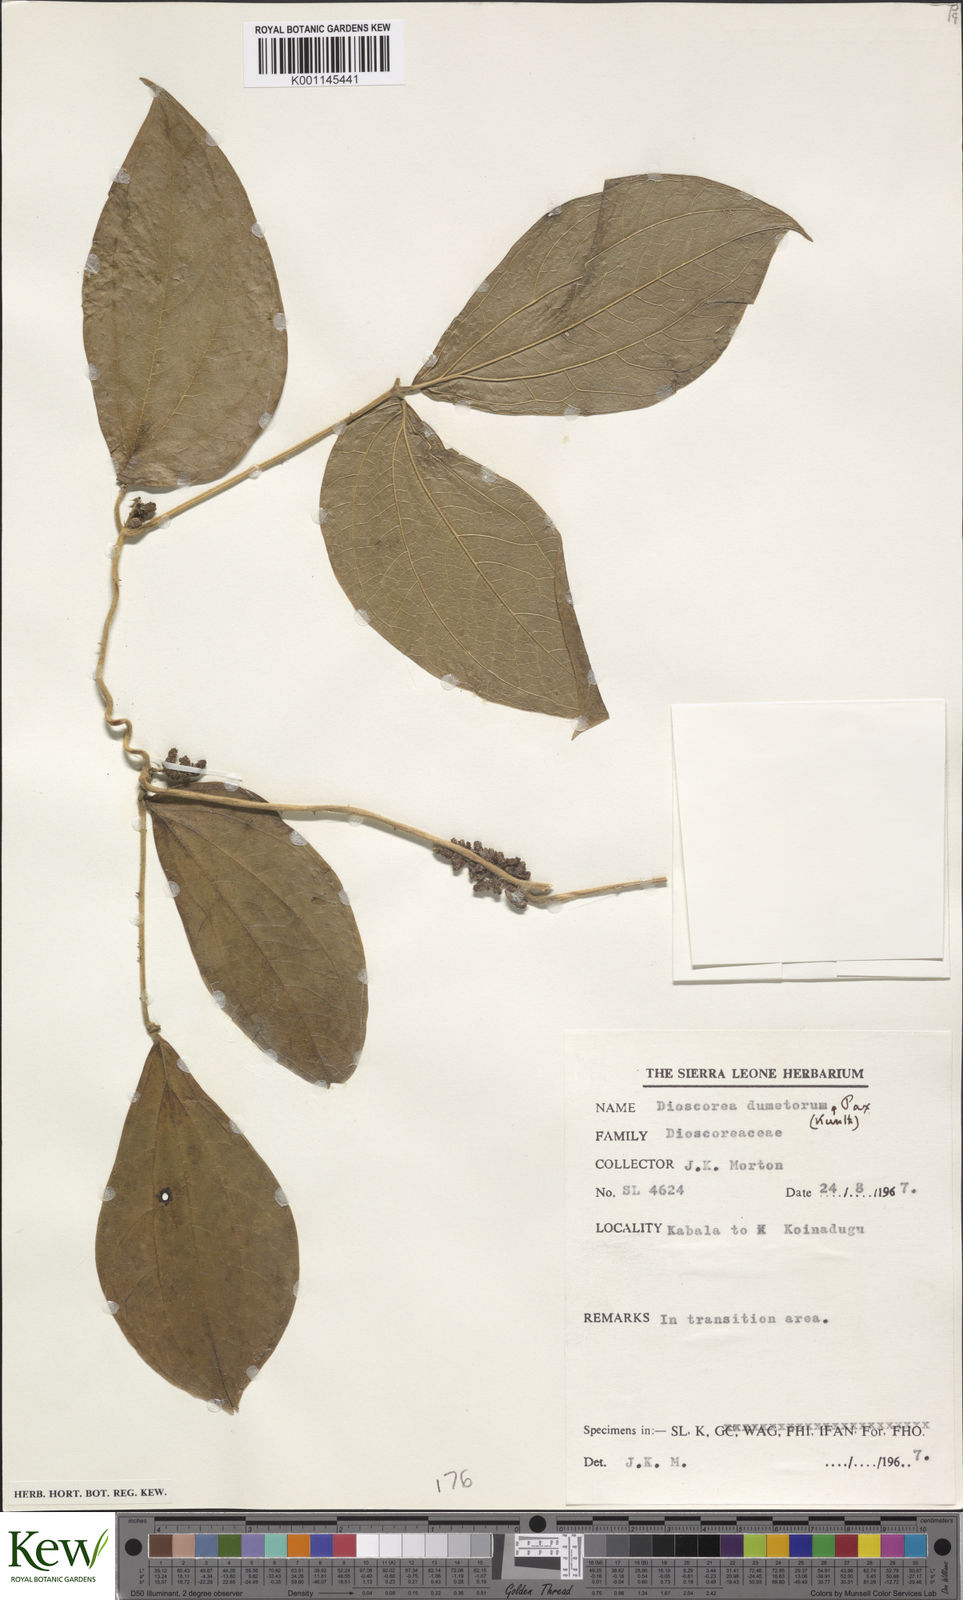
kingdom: Plantae
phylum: Tracheophyta
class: Liliopsida
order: Dioscoreales
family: Dioscoreaceae
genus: Dioscorea
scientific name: Dioscorea dumetorum
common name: African bitter yam
